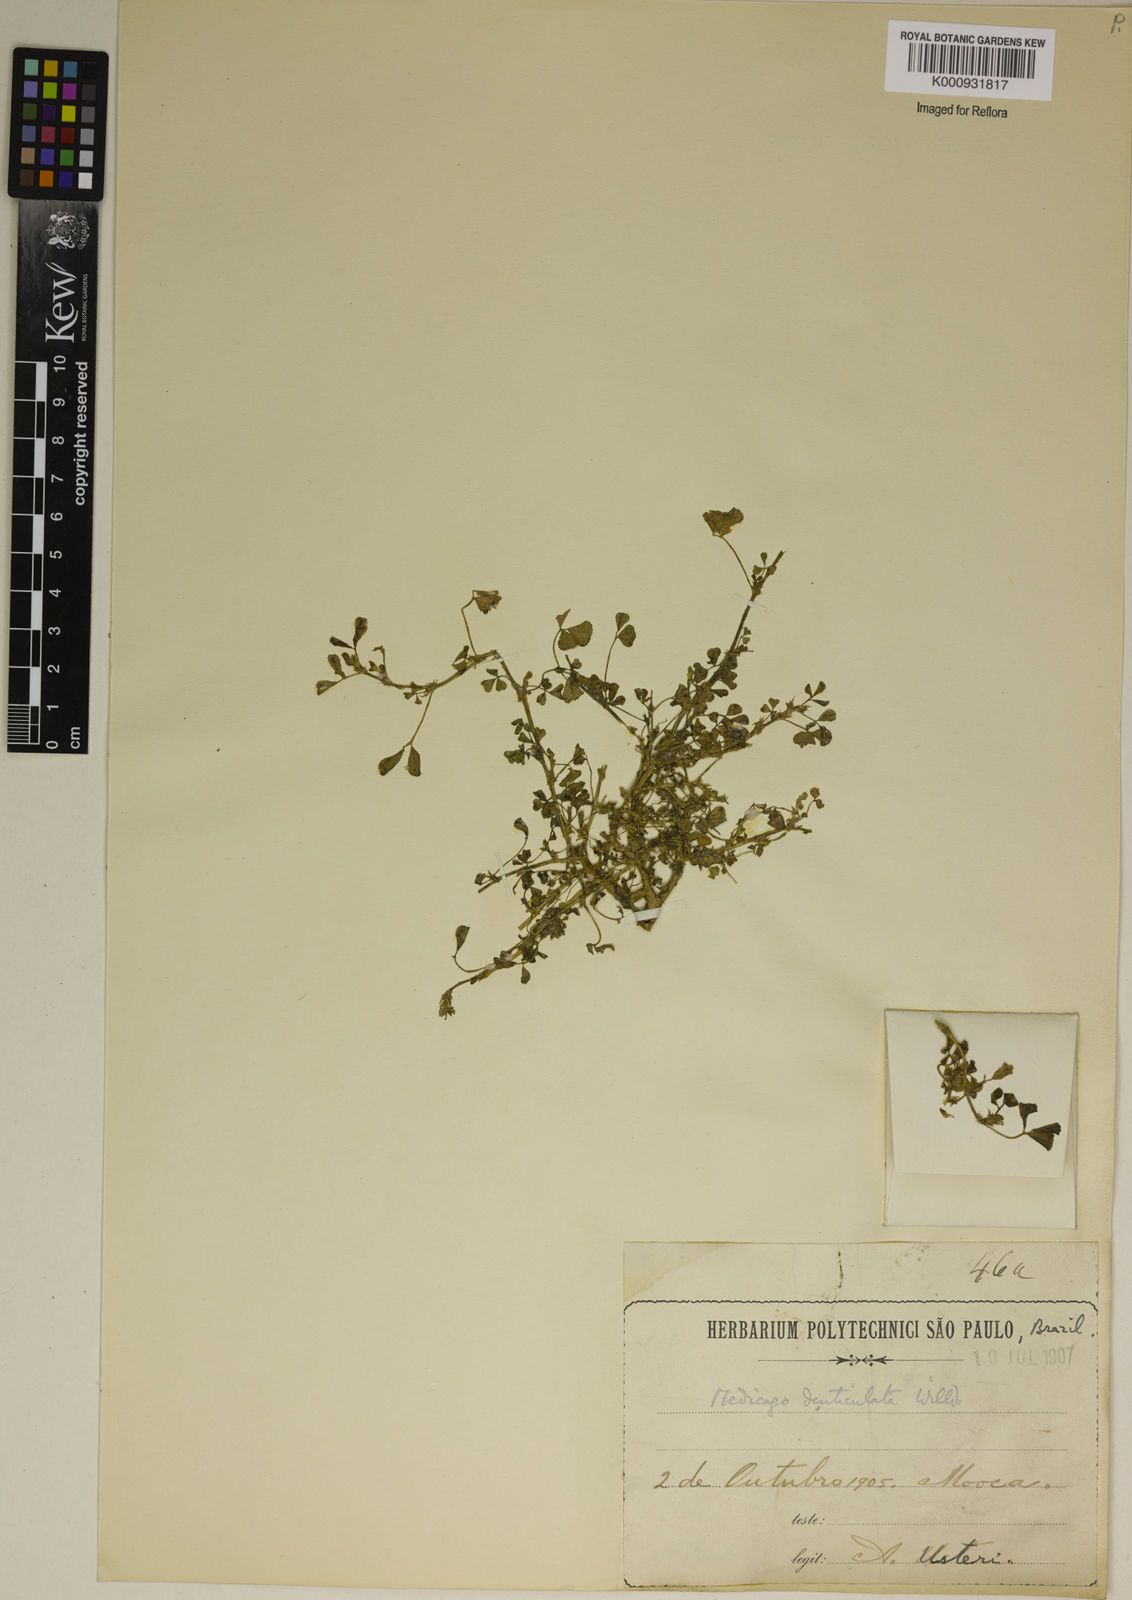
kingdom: Plantae
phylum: Tracheophyta
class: Magnoliopsida
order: Fabales
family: Fabaceae
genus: Medicago
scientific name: Medicago
